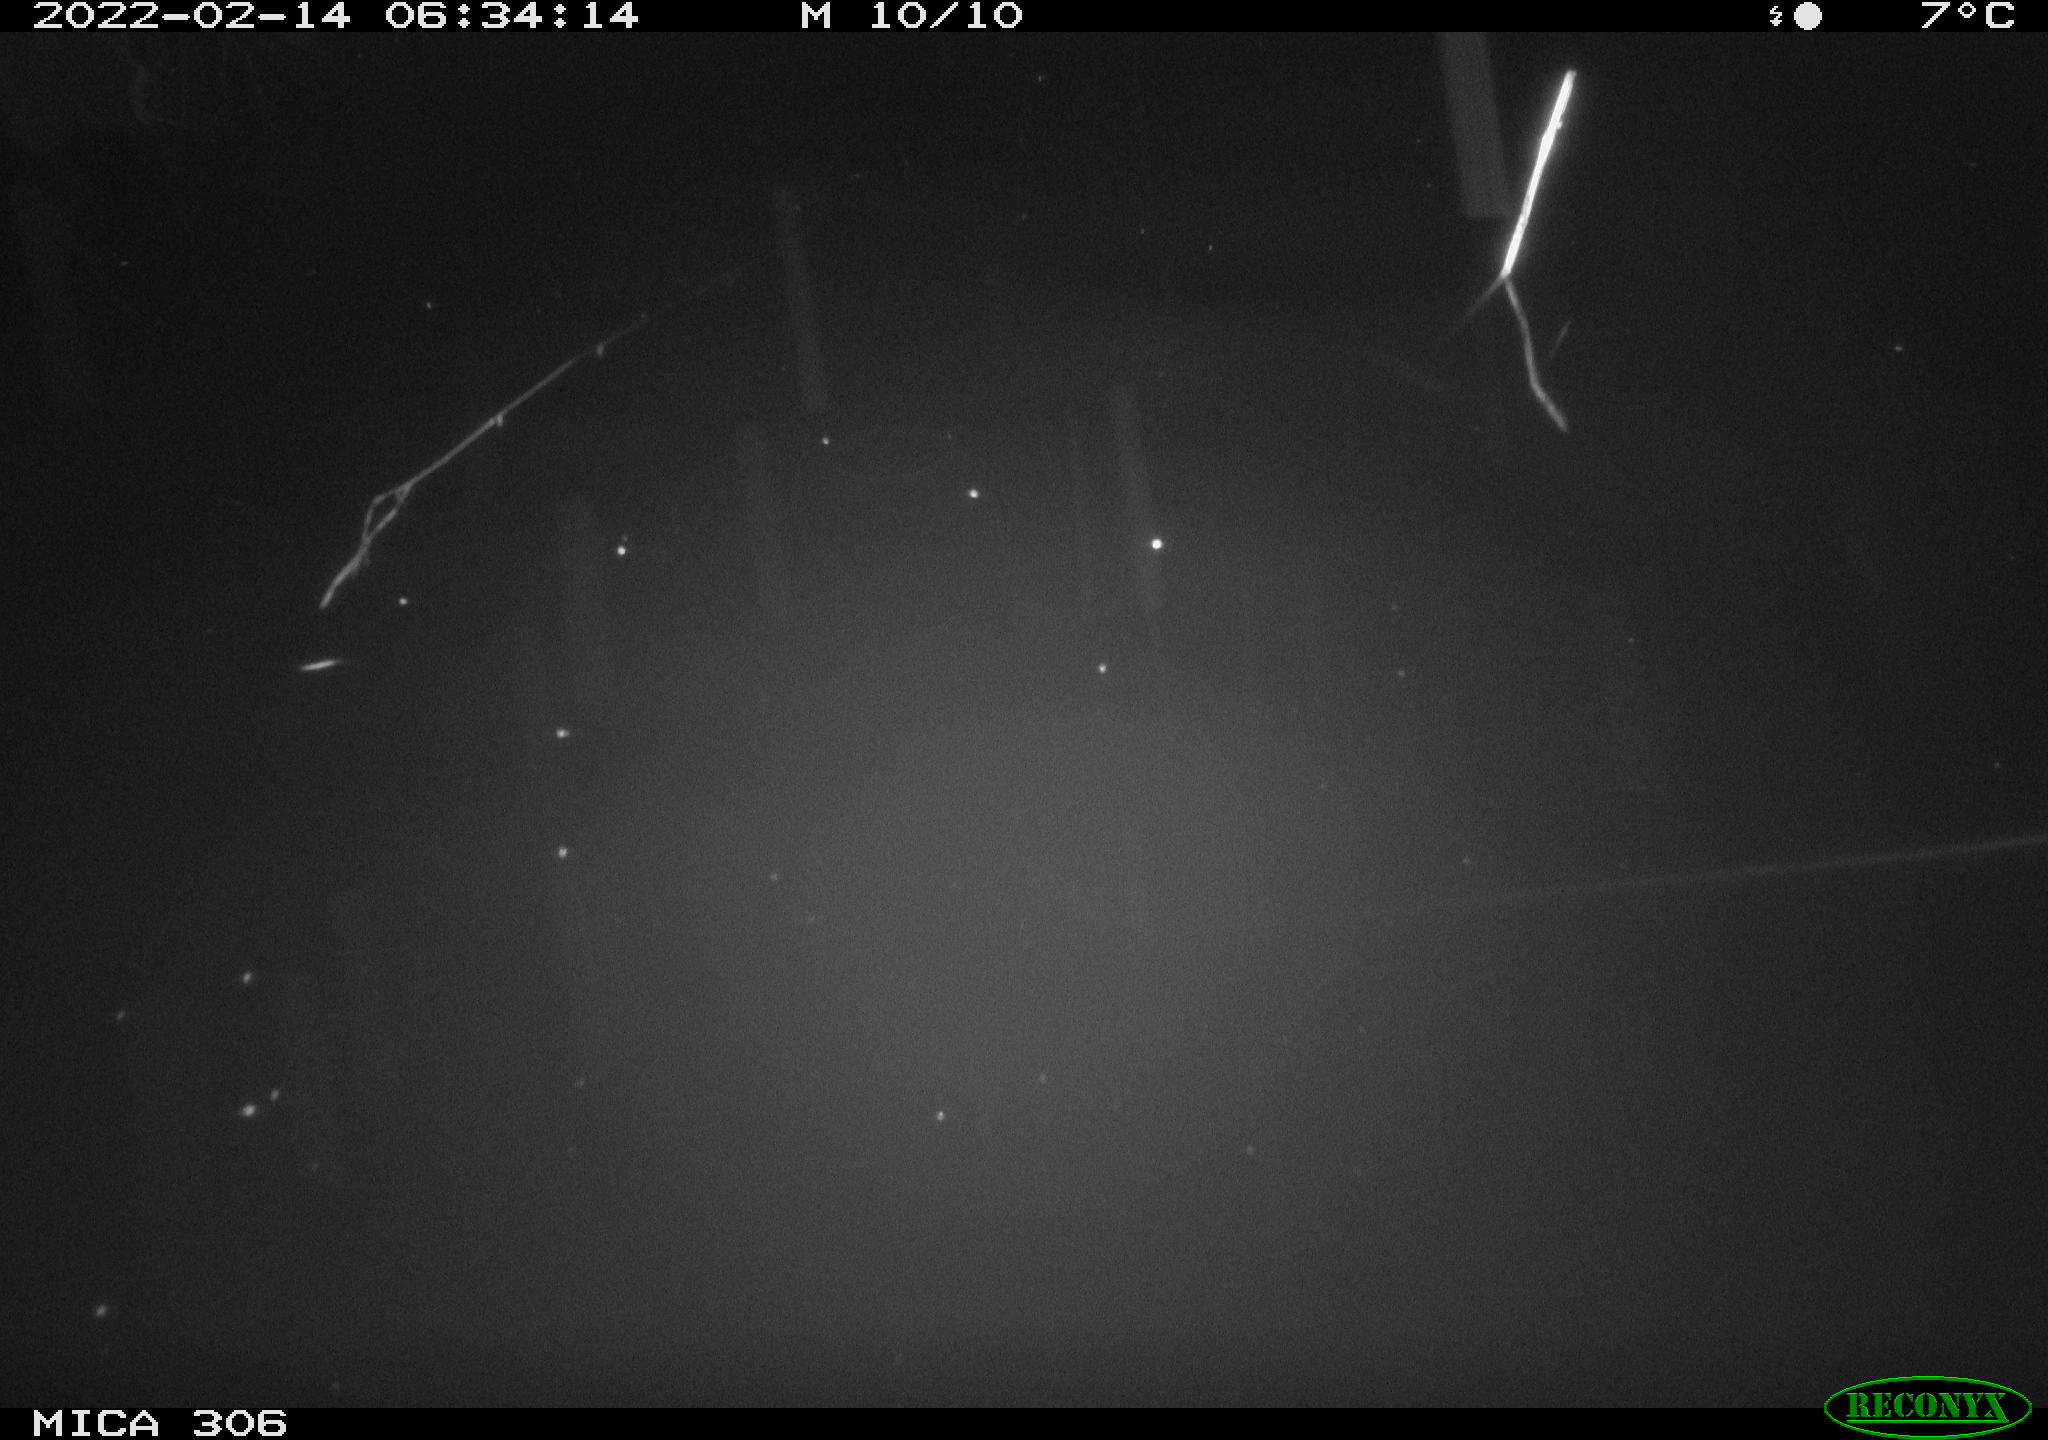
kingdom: Animalia
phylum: Chordata
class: Mammalia
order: Rodentia
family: Cricetidae
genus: Ondatra
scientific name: Ondatra zibethicus
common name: Muskrat
